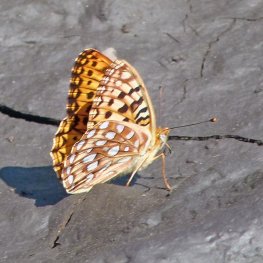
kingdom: Animalia
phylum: Arthropoda
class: Insecta
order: Lepidoptera
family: Nymphalidae
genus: Speyeria
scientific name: Speyeria zerene
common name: Zerene Fritillary
